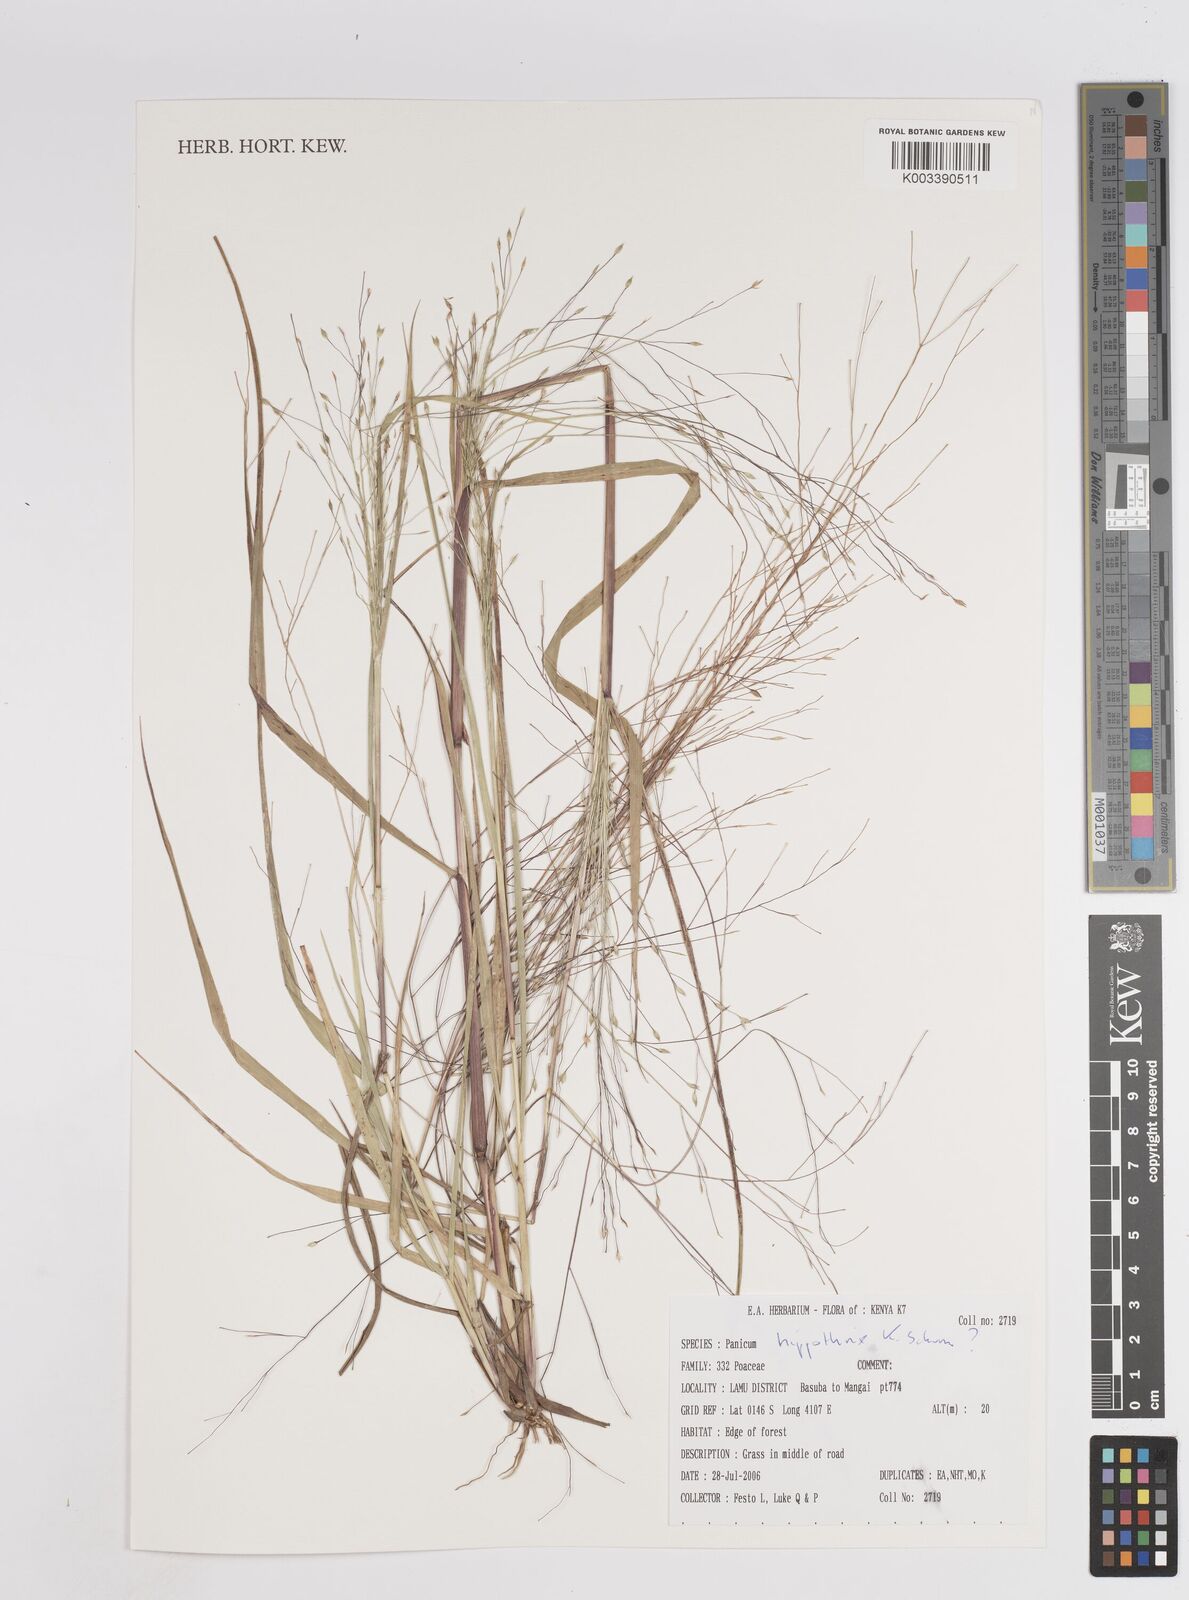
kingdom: Plantae
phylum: Tracheophyta
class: Liliopsida
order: Poales
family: Poaceae
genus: Panicum
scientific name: Panicum hippothrix
